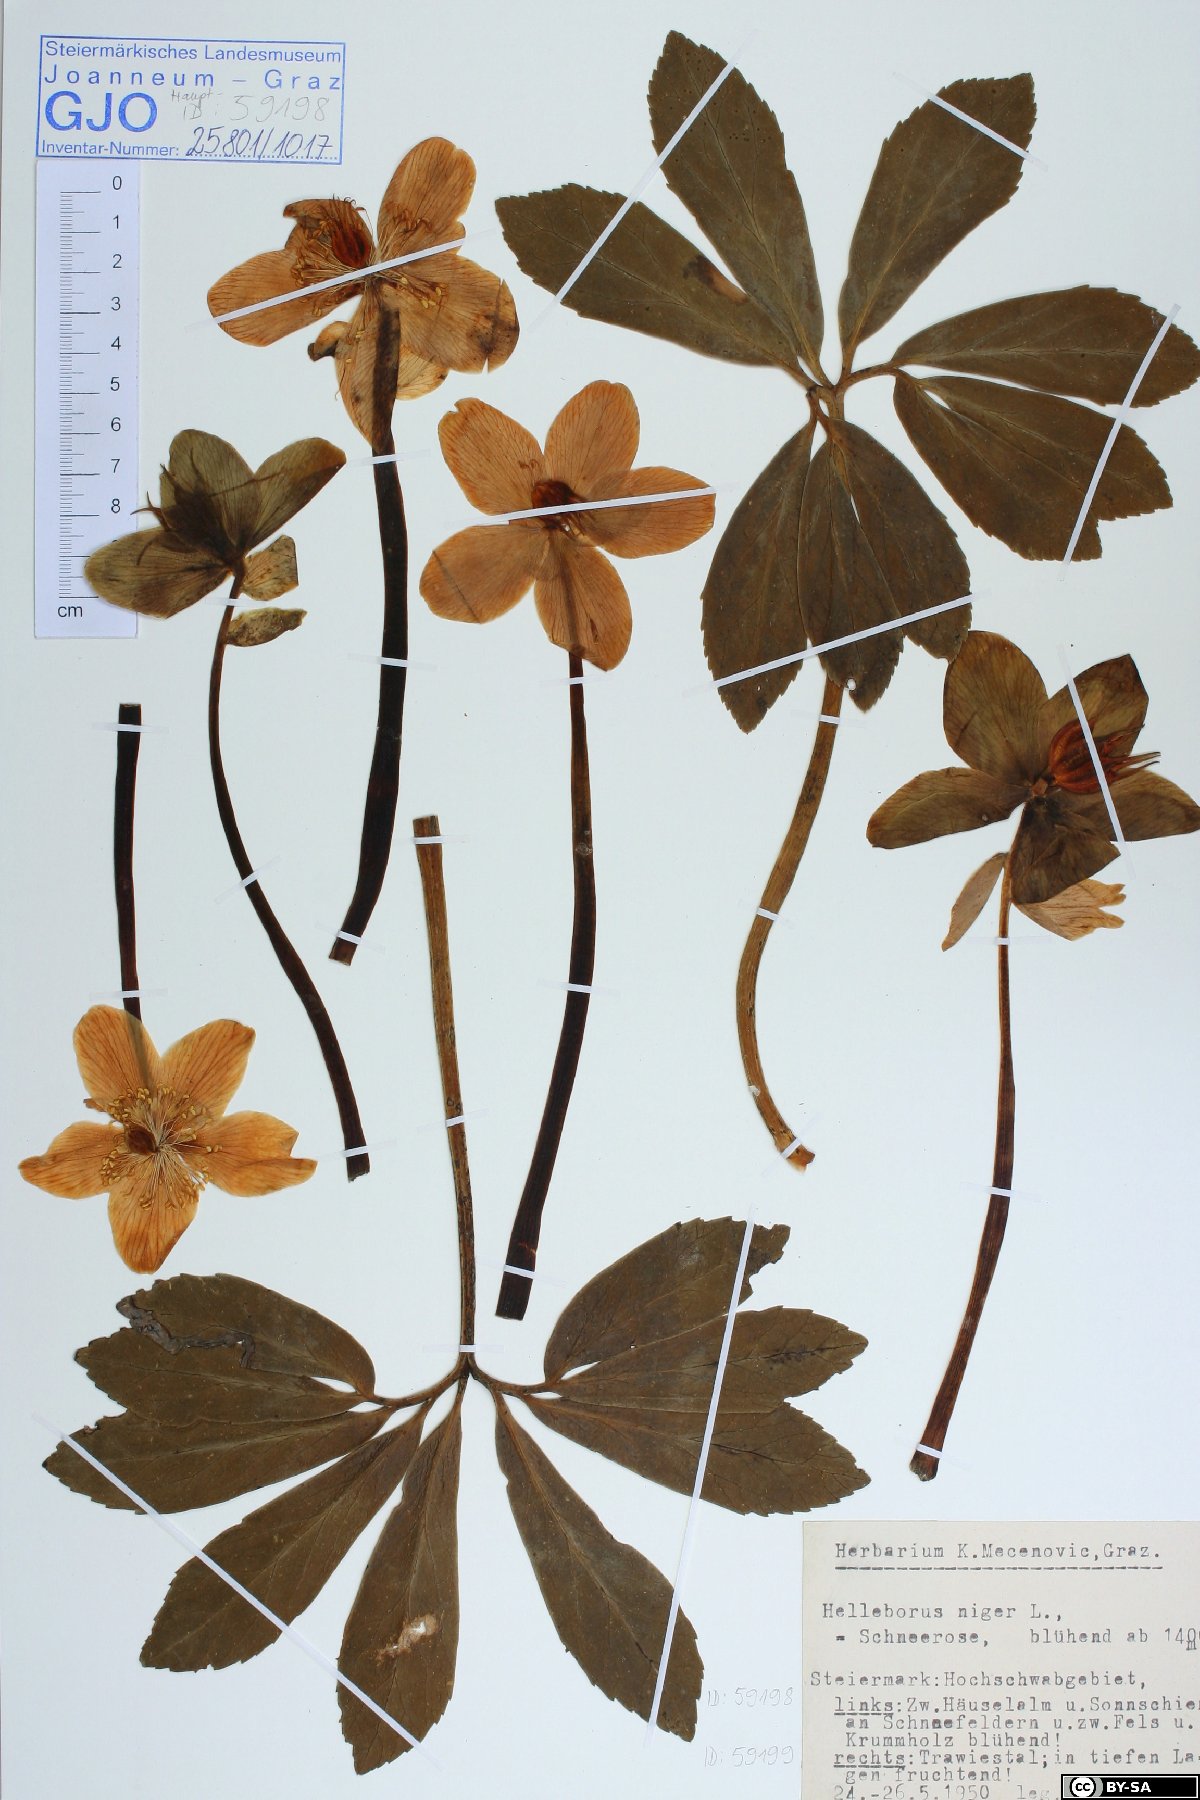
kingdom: Plantae
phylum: Tracheophyta
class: Magnoliopsida
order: Ranunculales
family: Ranunculaceae
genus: Helleborus
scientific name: Helleborus niger
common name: Black hellebore
